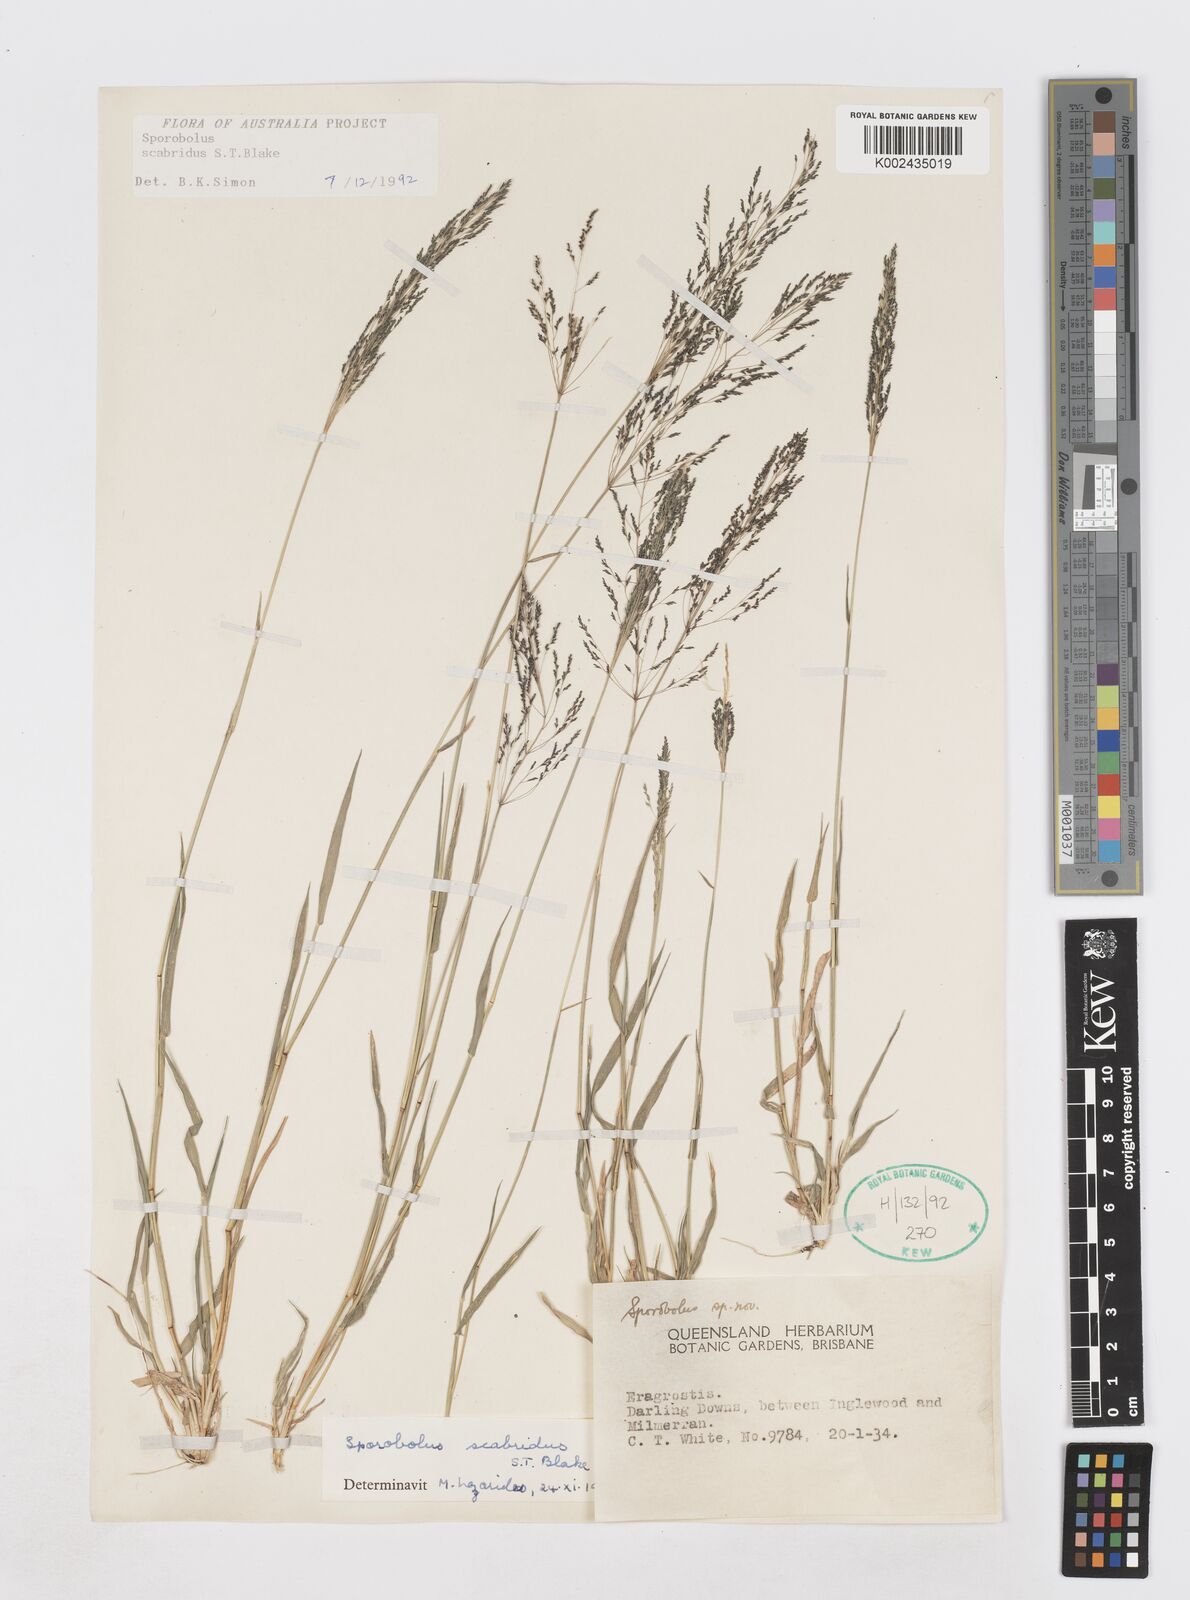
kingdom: Plantae
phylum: Tracheophyta
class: Liliopsida
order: Poales
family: Poaceae
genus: Sporobolus
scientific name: Sporobolus scabridus
